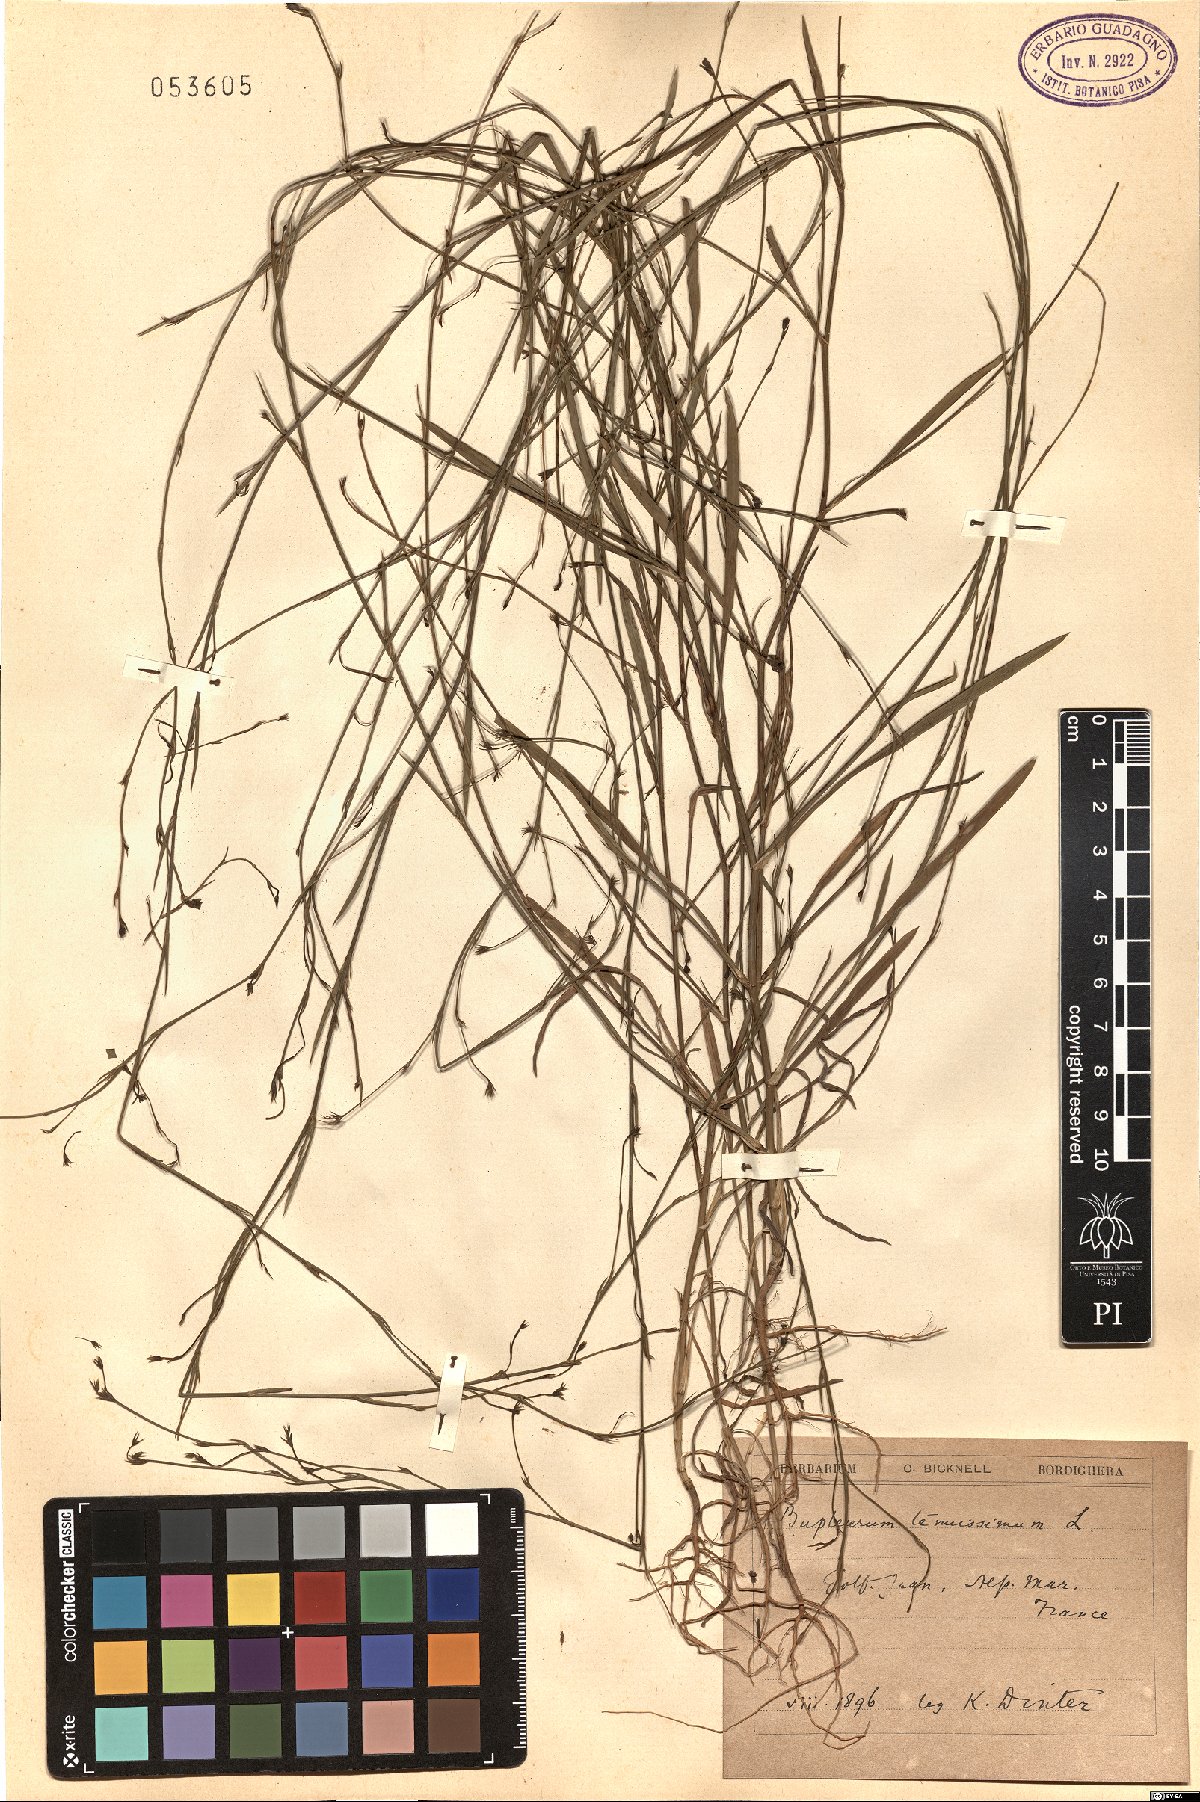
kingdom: Plantae
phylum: Tracheophyta
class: Magnoliopsida
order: Apiales
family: Apiaceae
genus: Bupleurum
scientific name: Bupleurum tenuissimum
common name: Slender hare's-ear
